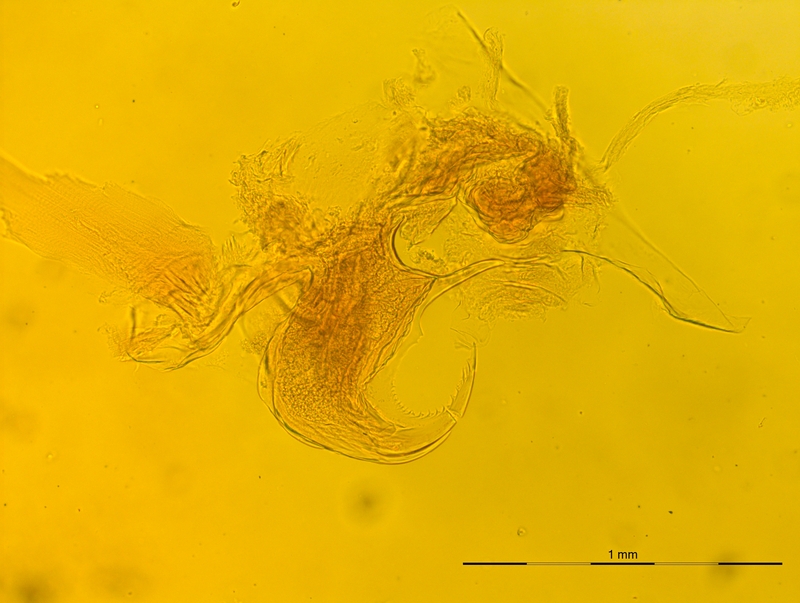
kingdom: Animalia
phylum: Arthropoda
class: Diplopoda
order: Chordeumatida
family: Craspedosomatidae
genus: Rhymogona
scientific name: Rhymogona montivaga
